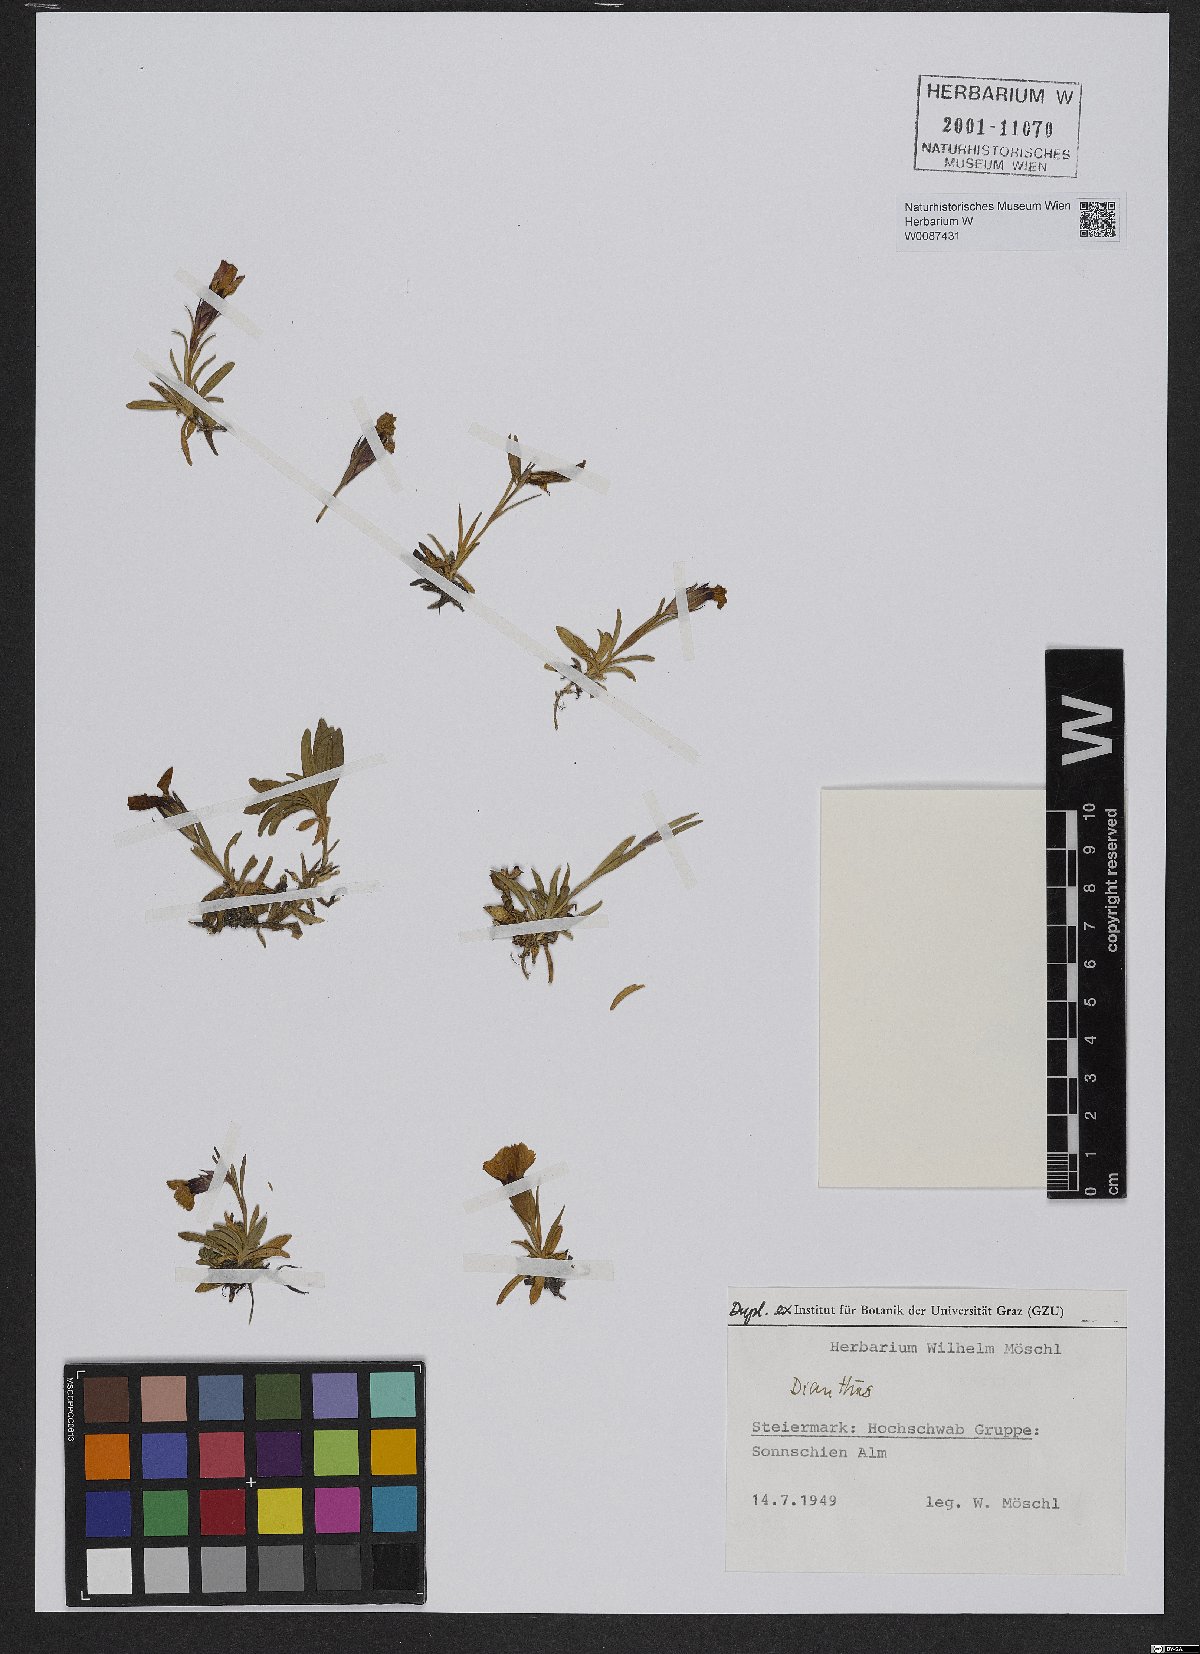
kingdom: Plantae
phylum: Tracheophyta
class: Magnoliopsida
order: Caryophyllales
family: Caryophyllaceae
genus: Dianthus
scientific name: Dianthus alpinus
